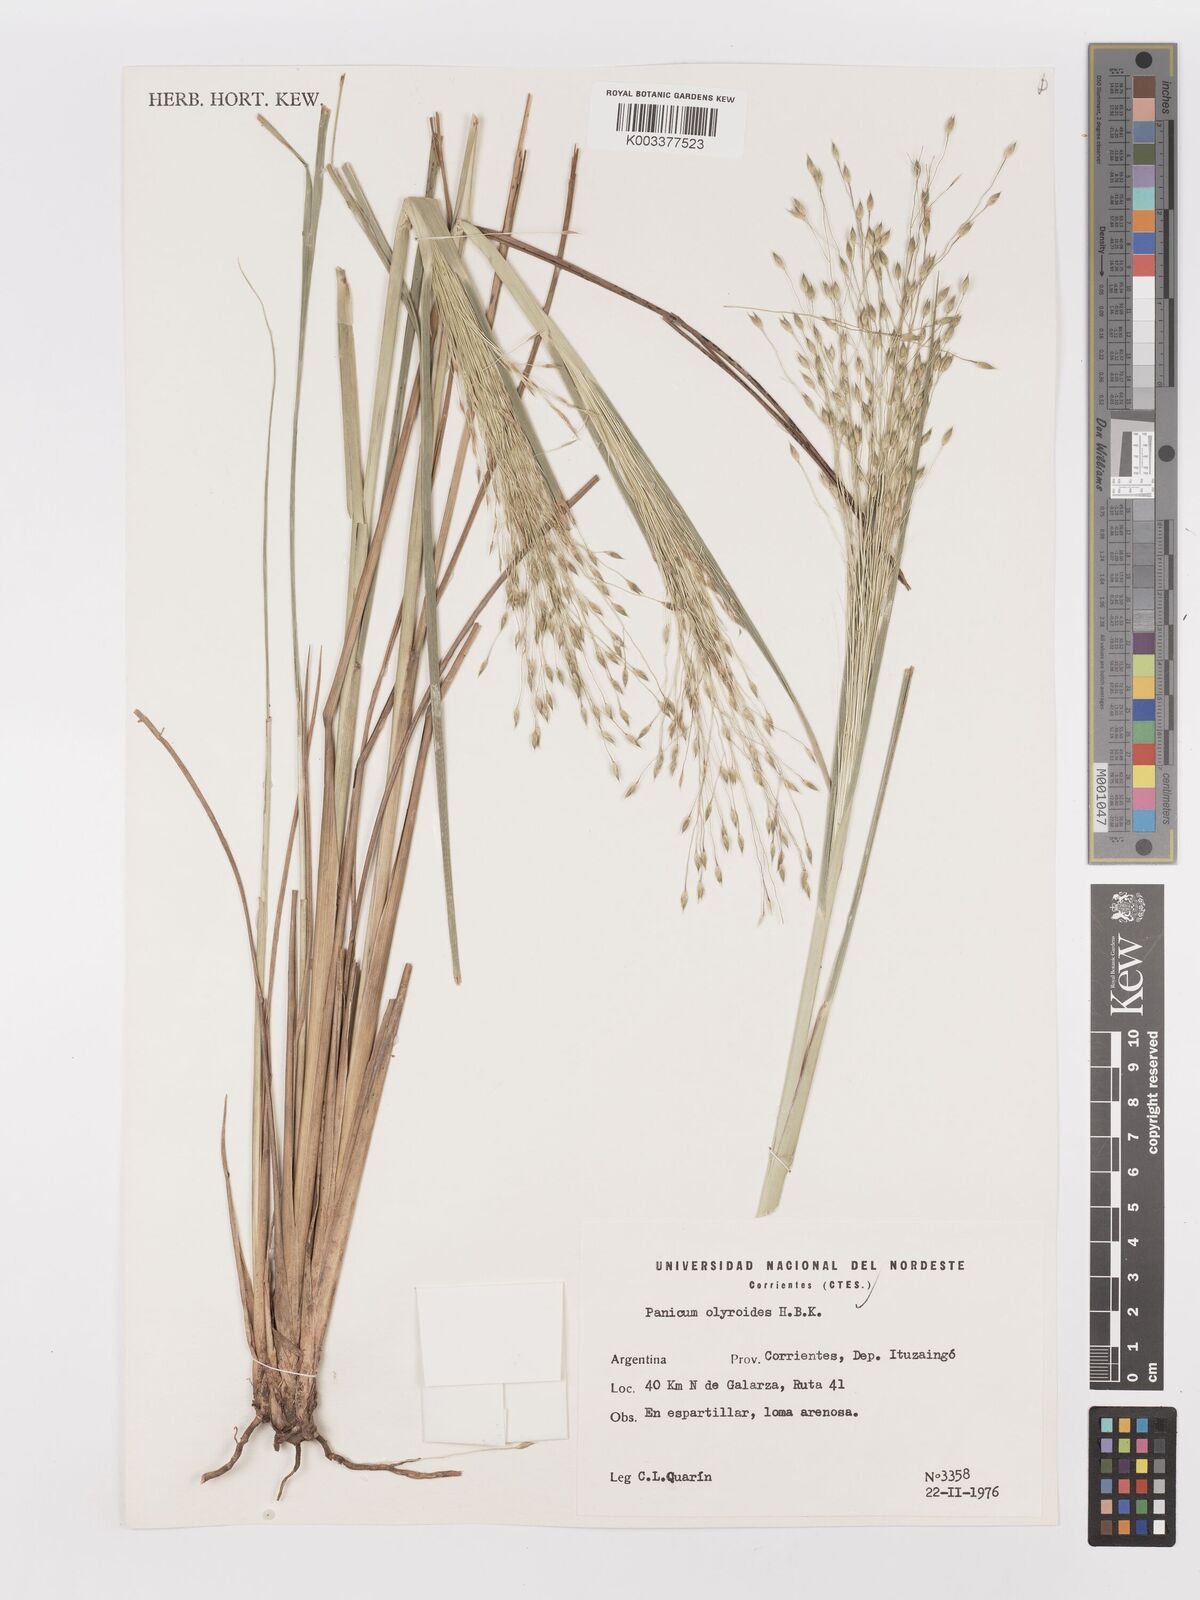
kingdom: Plantae
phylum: Tracheophyta
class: Liliopsida
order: Poales
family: Poaceae
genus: Panicum
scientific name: Panicum olyroides
